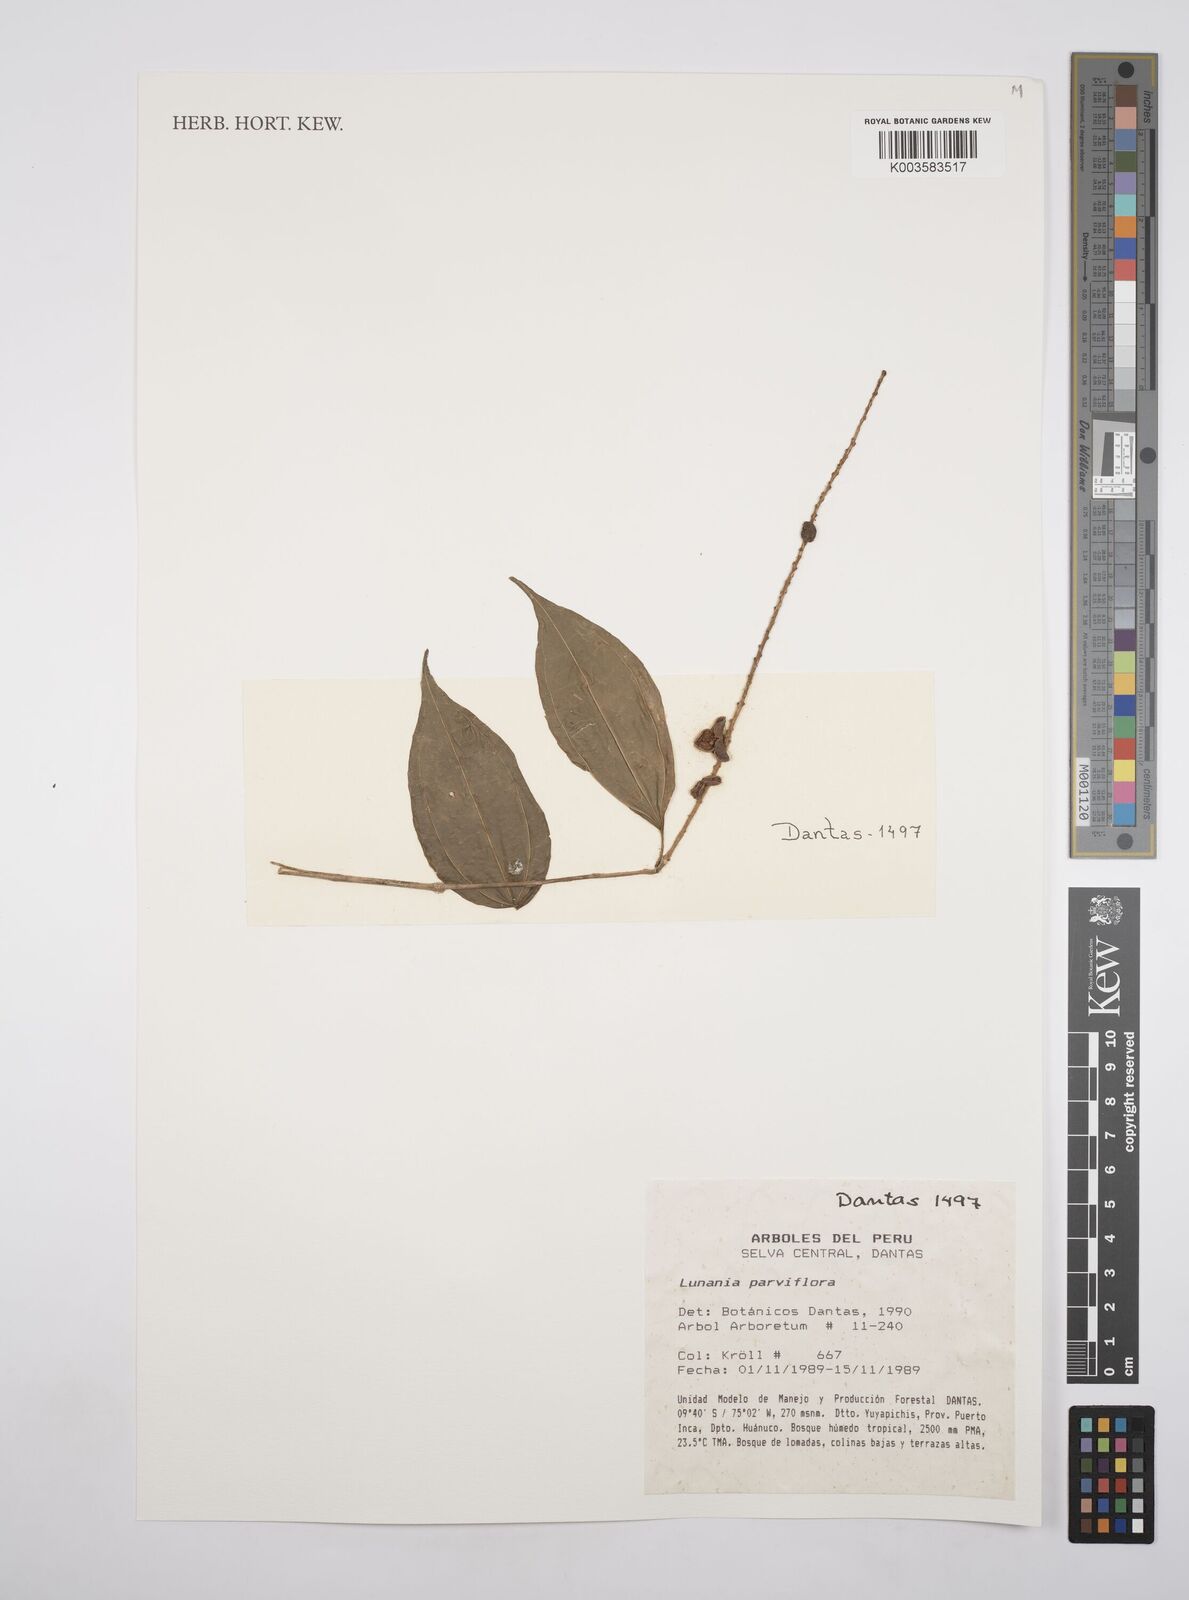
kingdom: Plantae
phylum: Tracheophyta
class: Magnoliopsida
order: Malpighiales
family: Salicaceae
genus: Lunania
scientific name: Lunania parviflora
